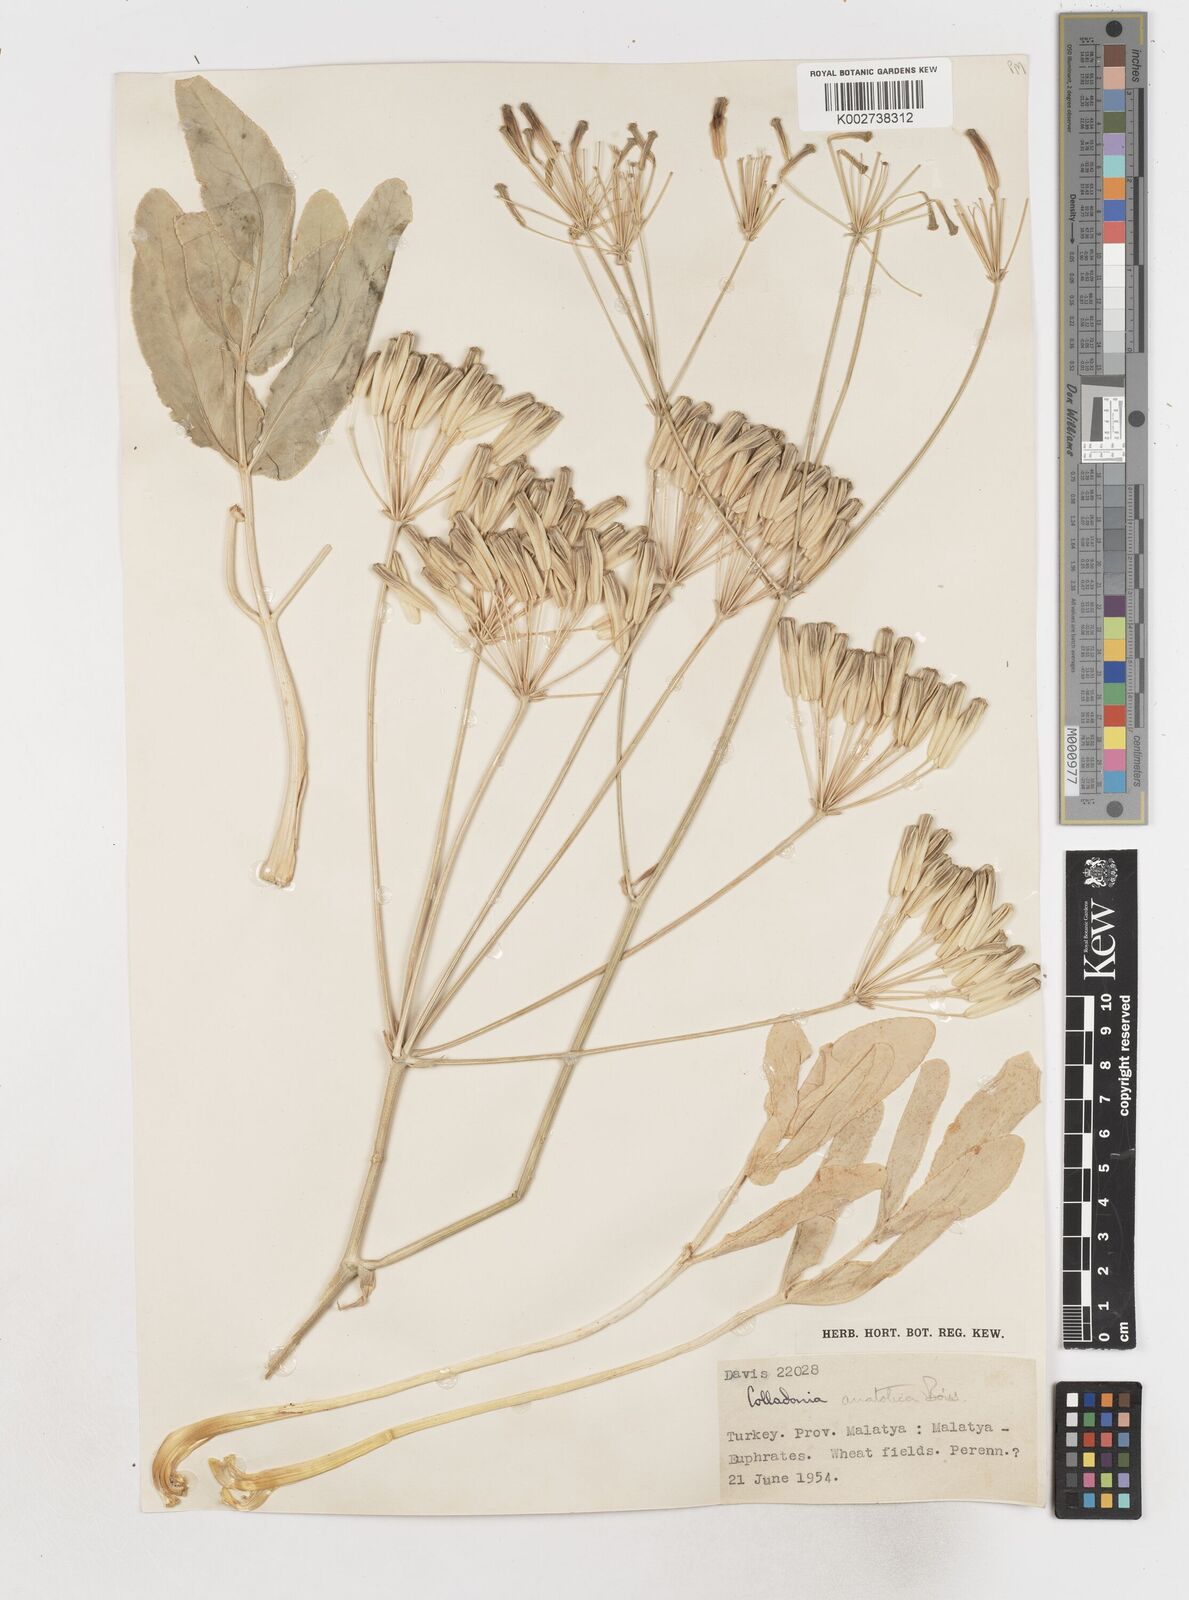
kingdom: Plantae
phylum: Tracheophyta
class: Magnoliopsida
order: Apiales
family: Apiaceae
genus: Heptaptera
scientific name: Heptaptera anatolica
